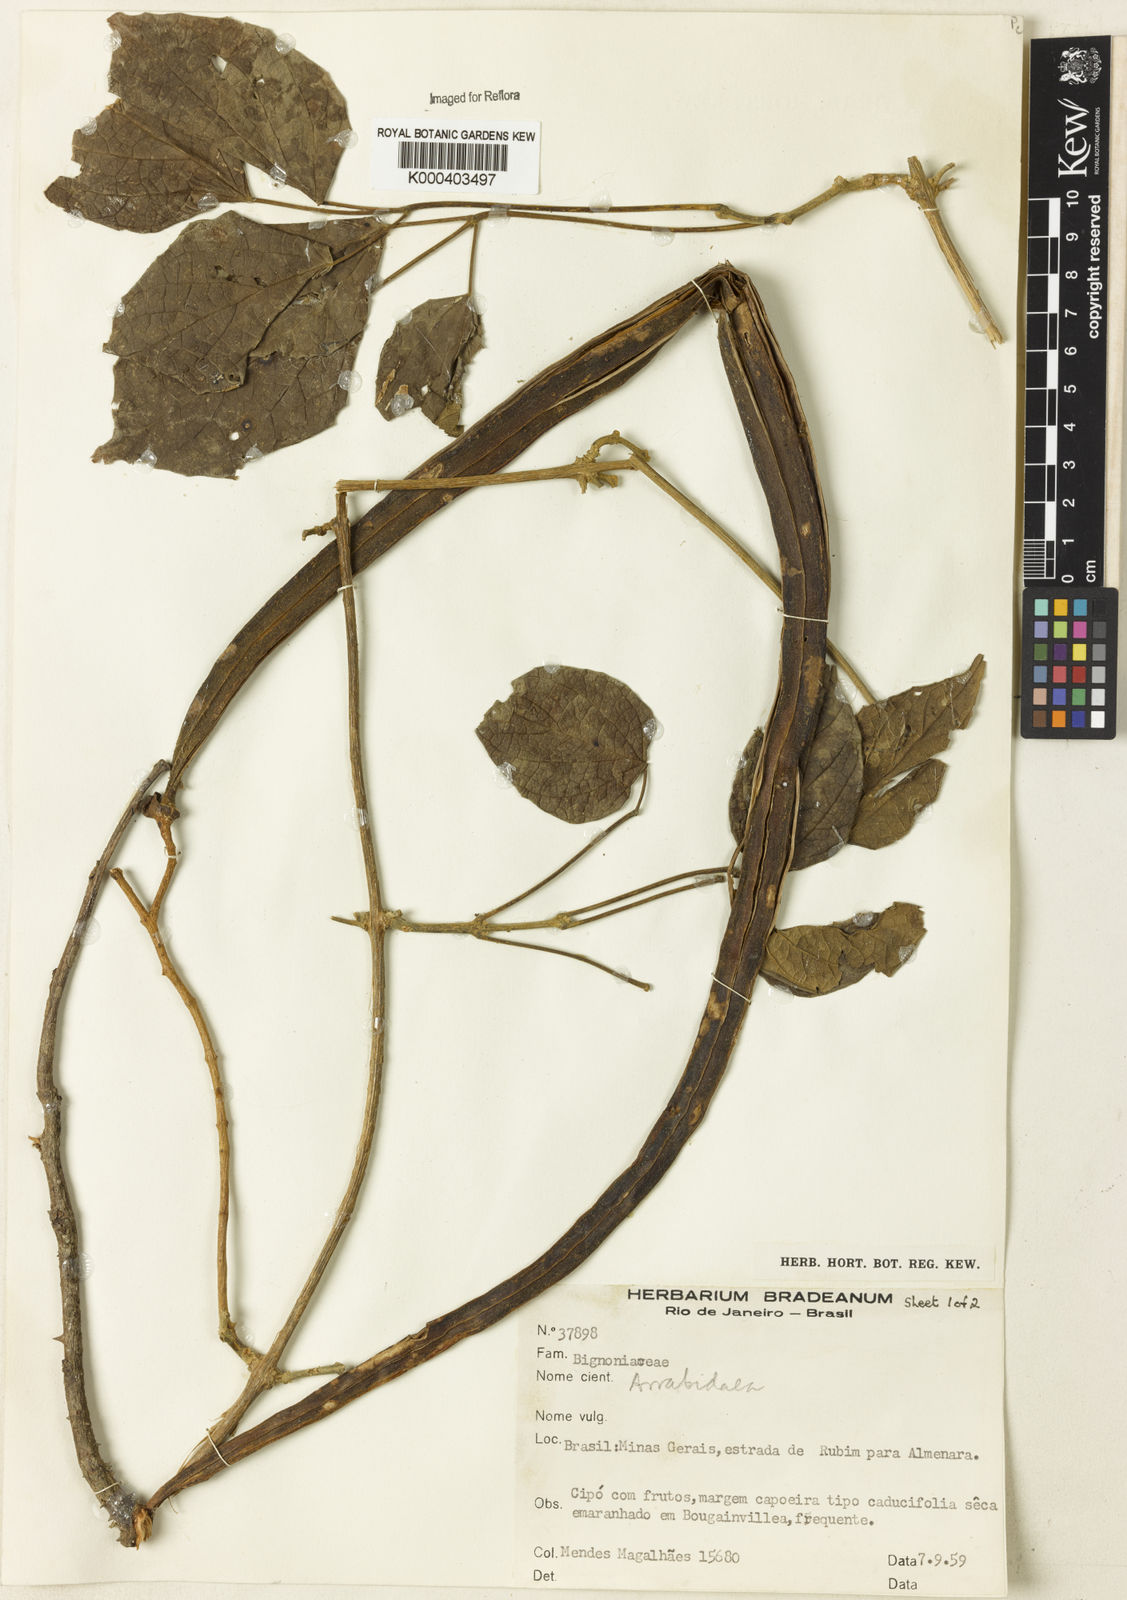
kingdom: Plantae
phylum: Tracheophyta
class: Magnoliopsida
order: Rosales
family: Rhamnaceae
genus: Arrabidaea
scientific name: Arrabidaea
